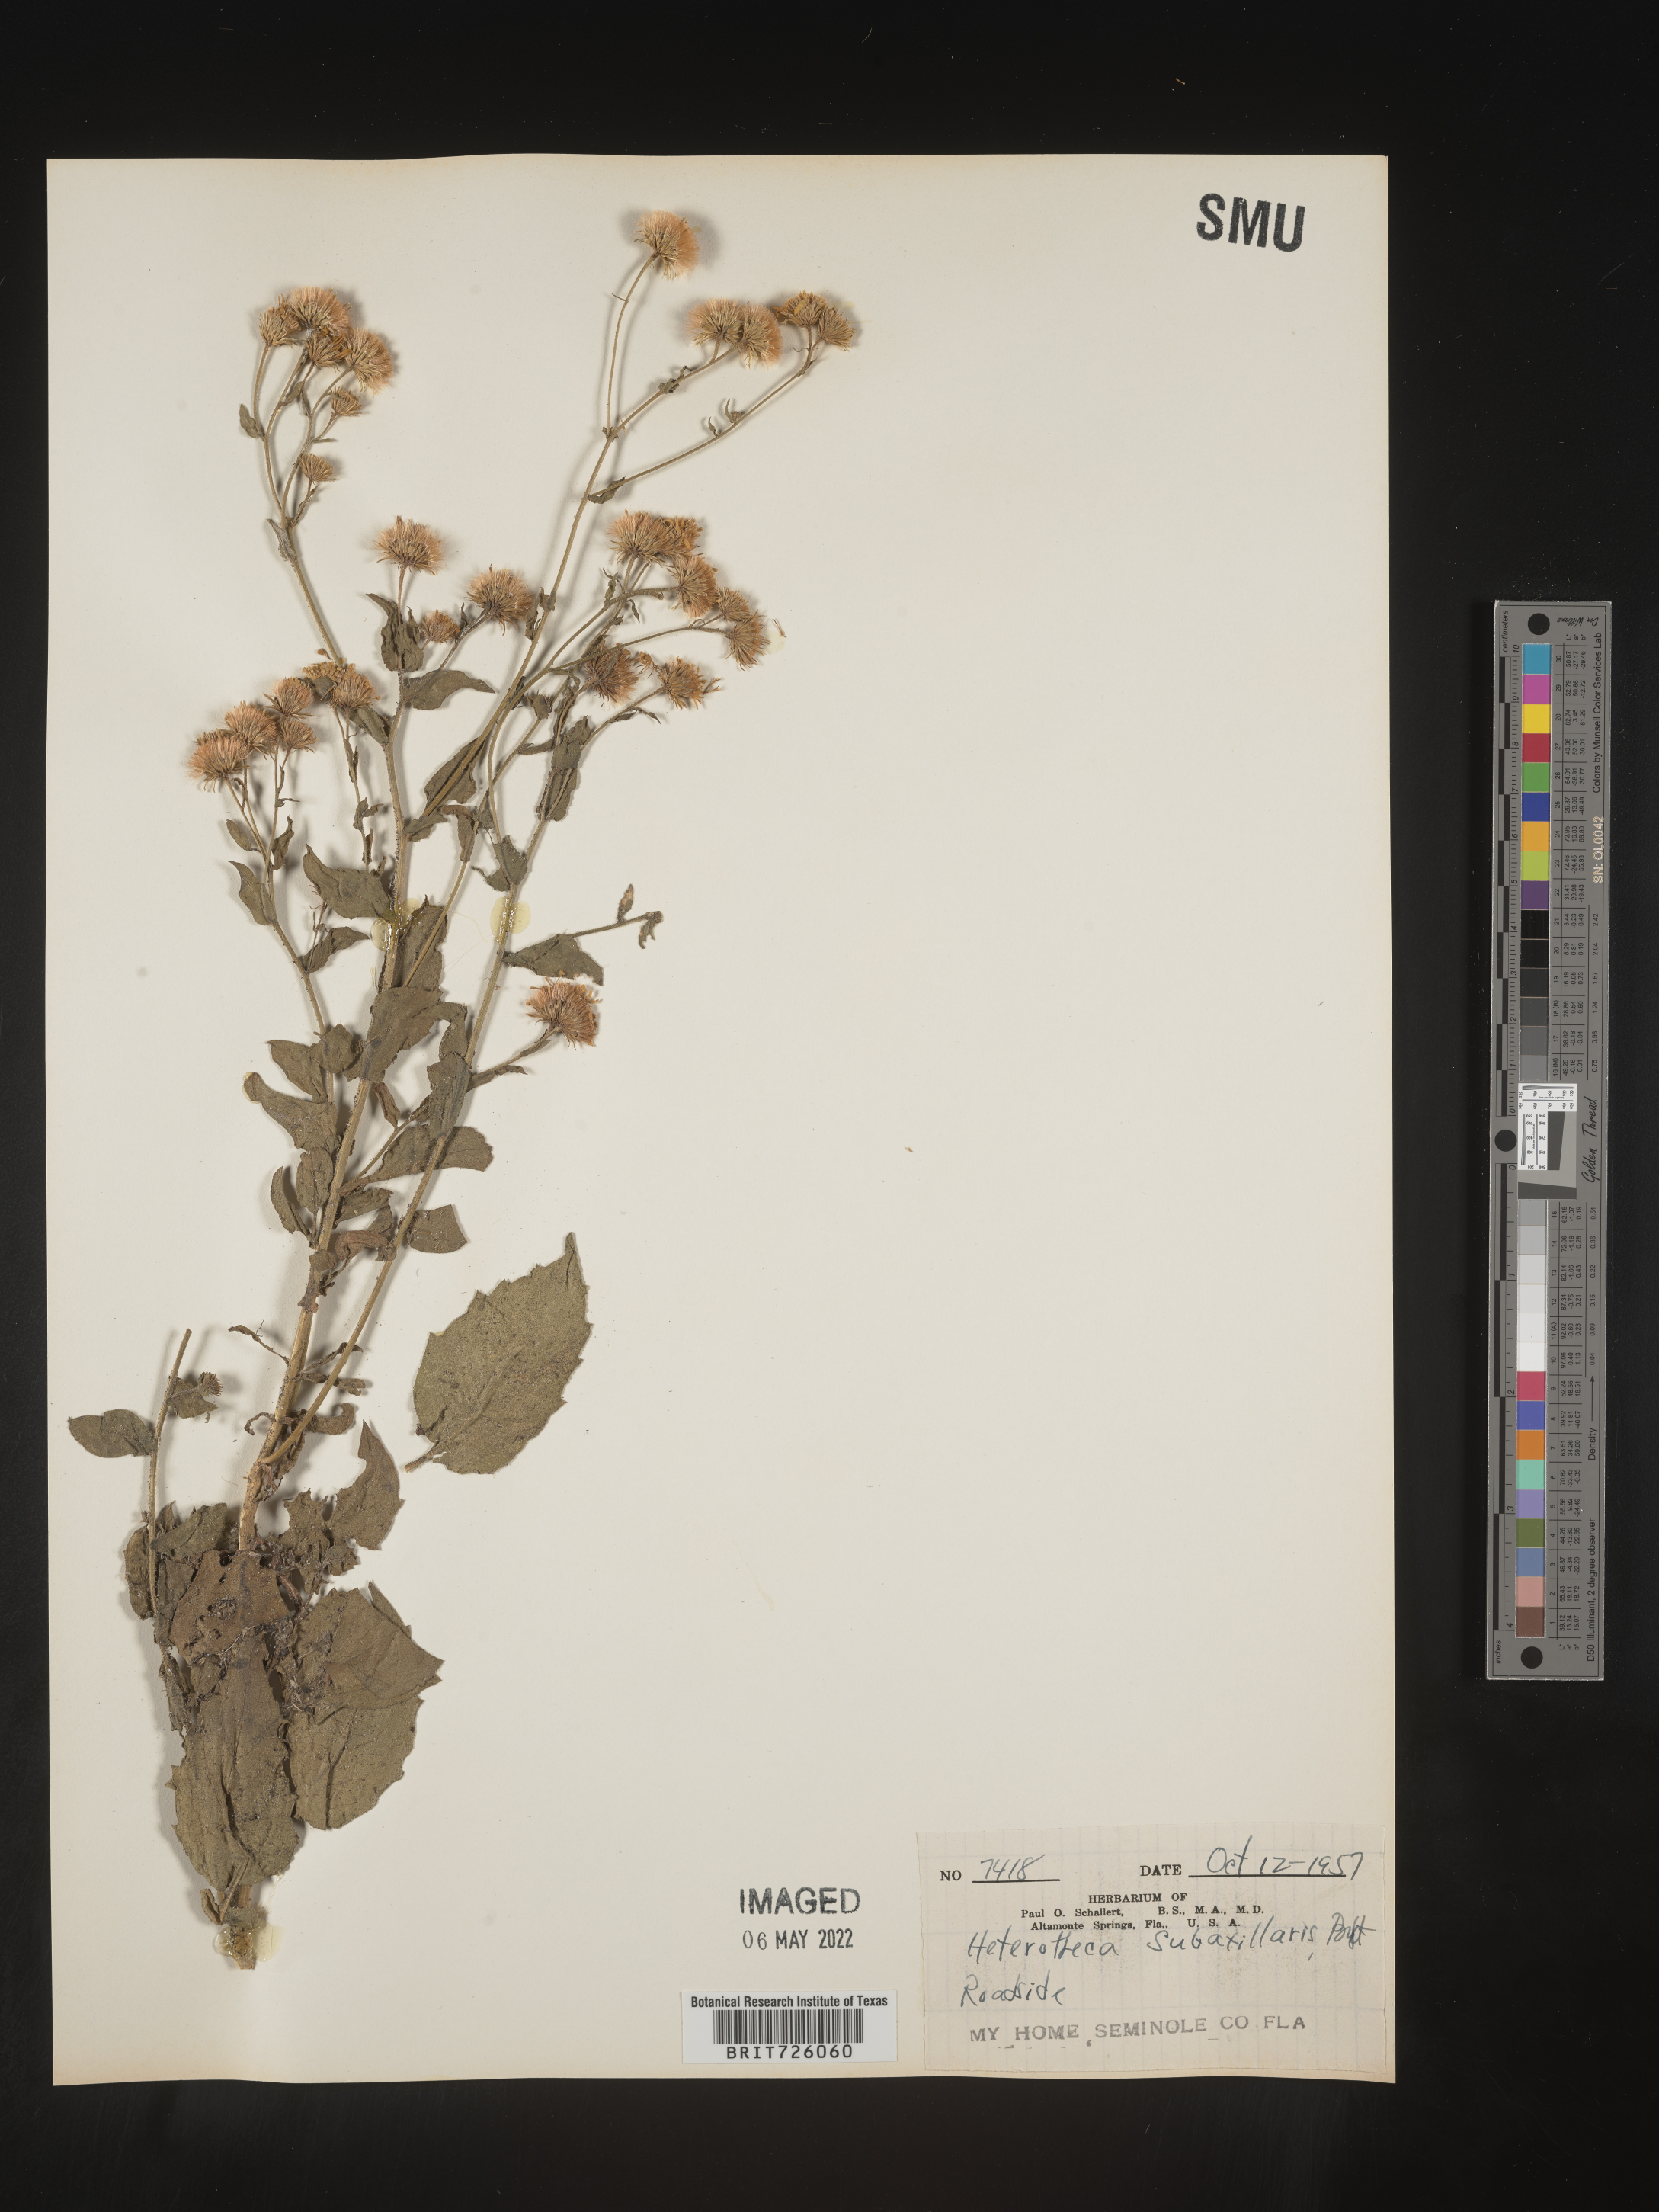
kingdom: Plantae
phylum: Tracheophyta
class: Magnoliopsida
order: Asterales
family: Asteraceae
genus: Heterotheca
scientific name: Heterotheca subaxillaris
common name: Camphorweed
